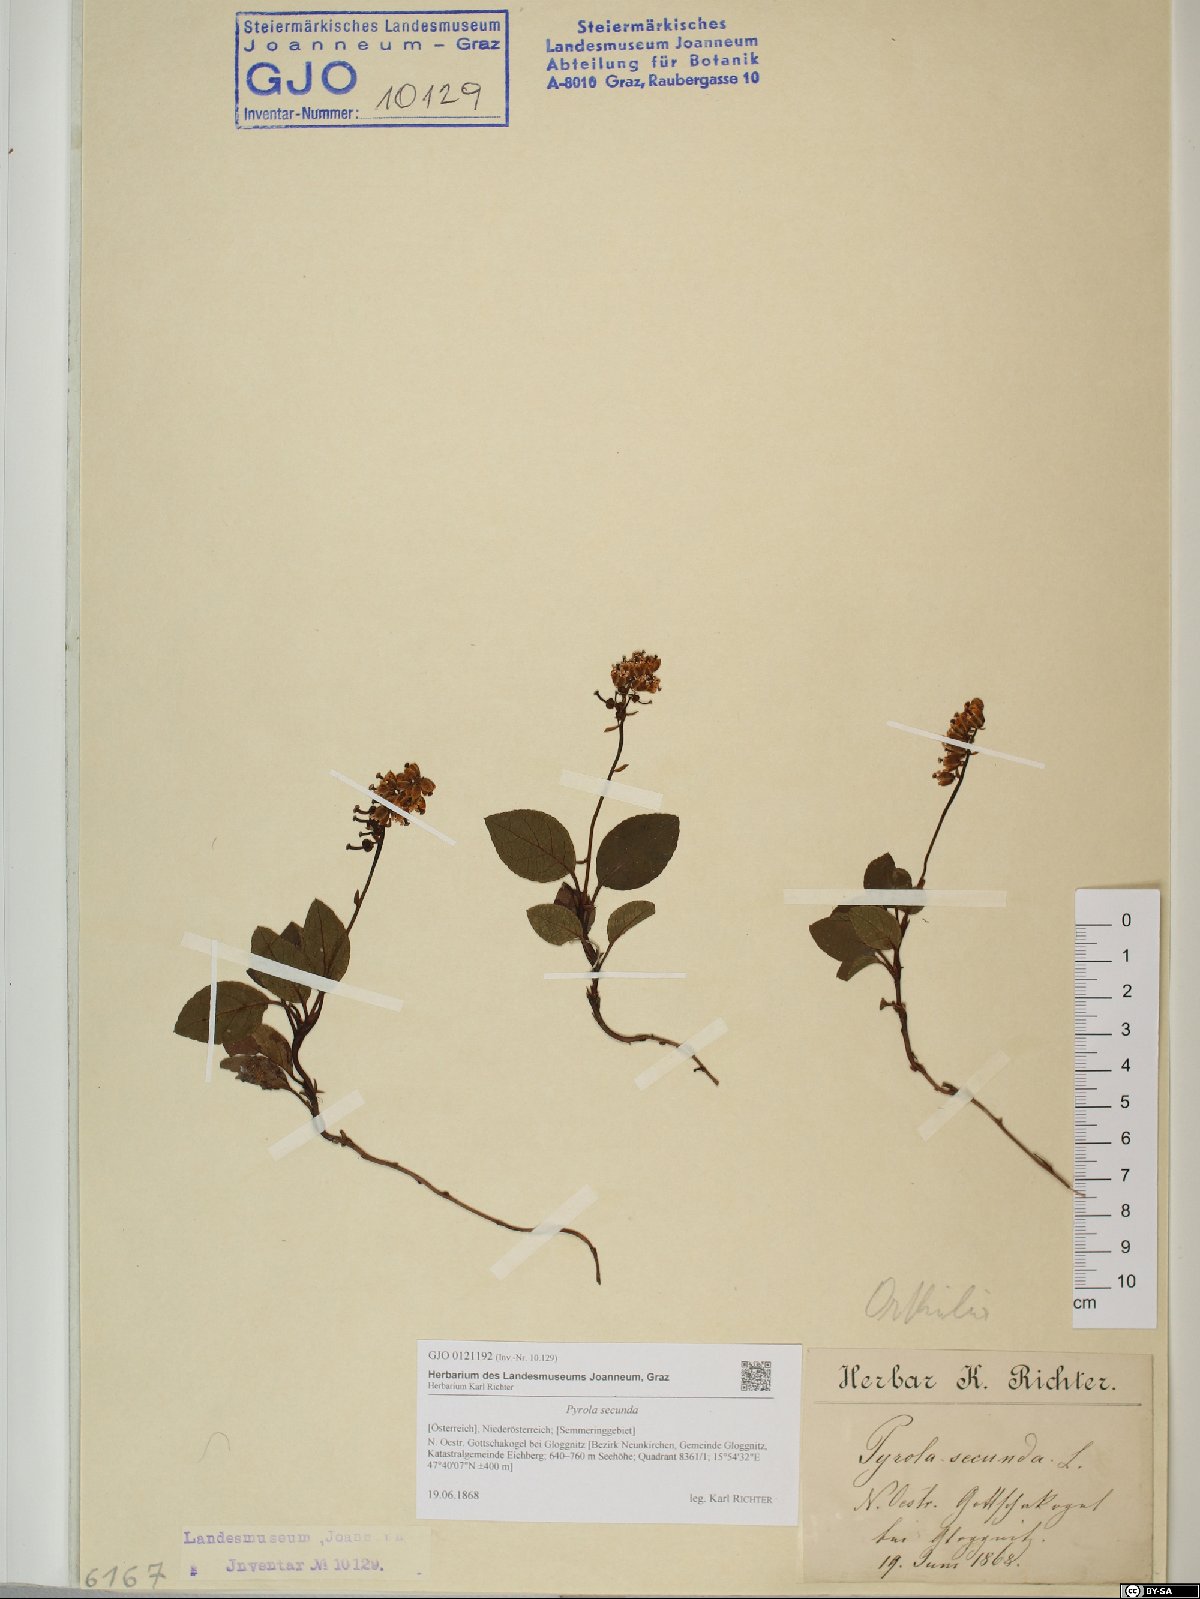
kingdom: Plantae
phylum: Tracheophyta
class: Magnoliopsida
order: Ericales
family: Ericaceae
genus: Orthilia
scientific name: Orthilia secunda
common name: One-sided orthilia
